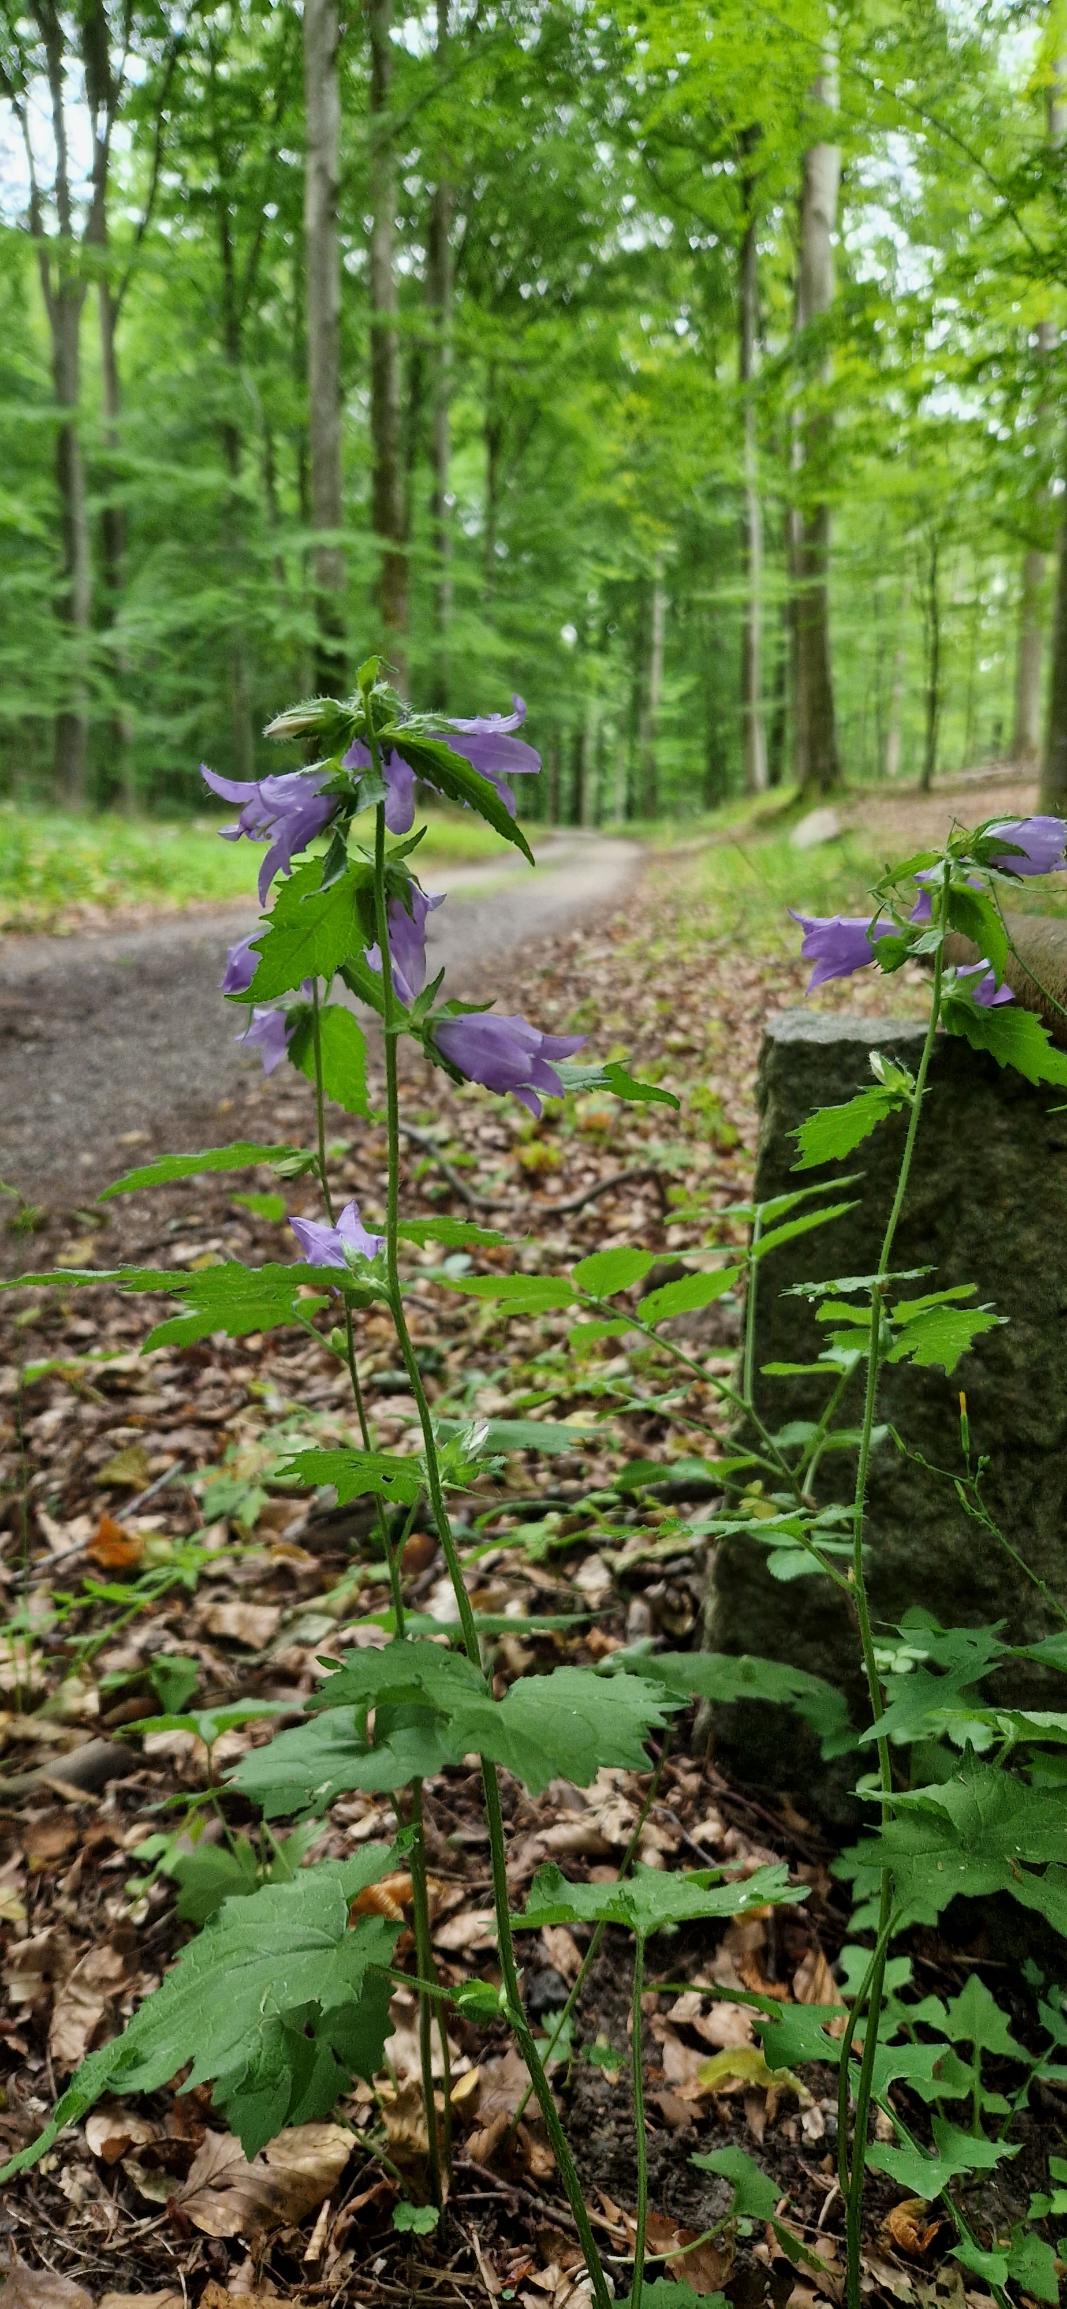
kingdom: Plantae
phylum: Tracheophyta
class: Magnoliopsida
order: Asterales
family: Campanulaceae
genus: Campanula
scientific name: Campanula trachelium
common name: Nælde-klokke
